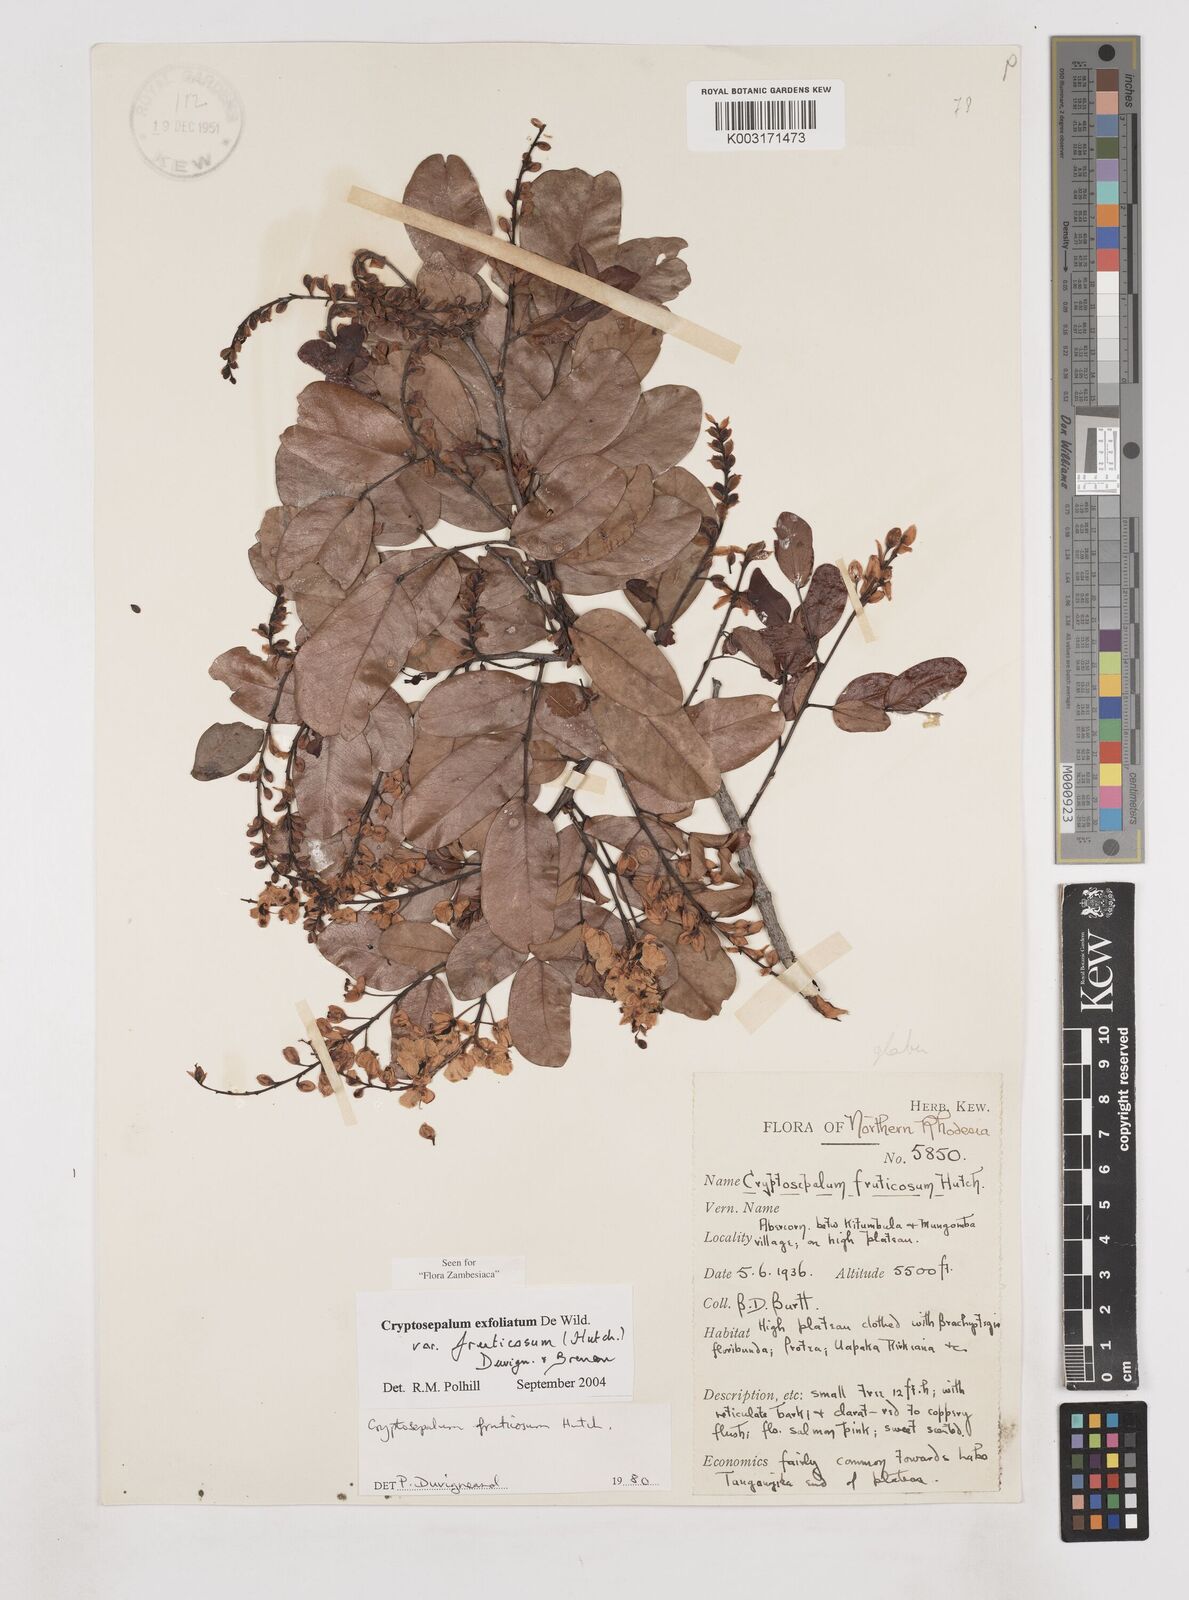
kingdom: Plantae
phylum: Tracheophyta
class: Magnoliopsida
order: Fabales
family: Fabaceae
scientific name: Fabaceae
